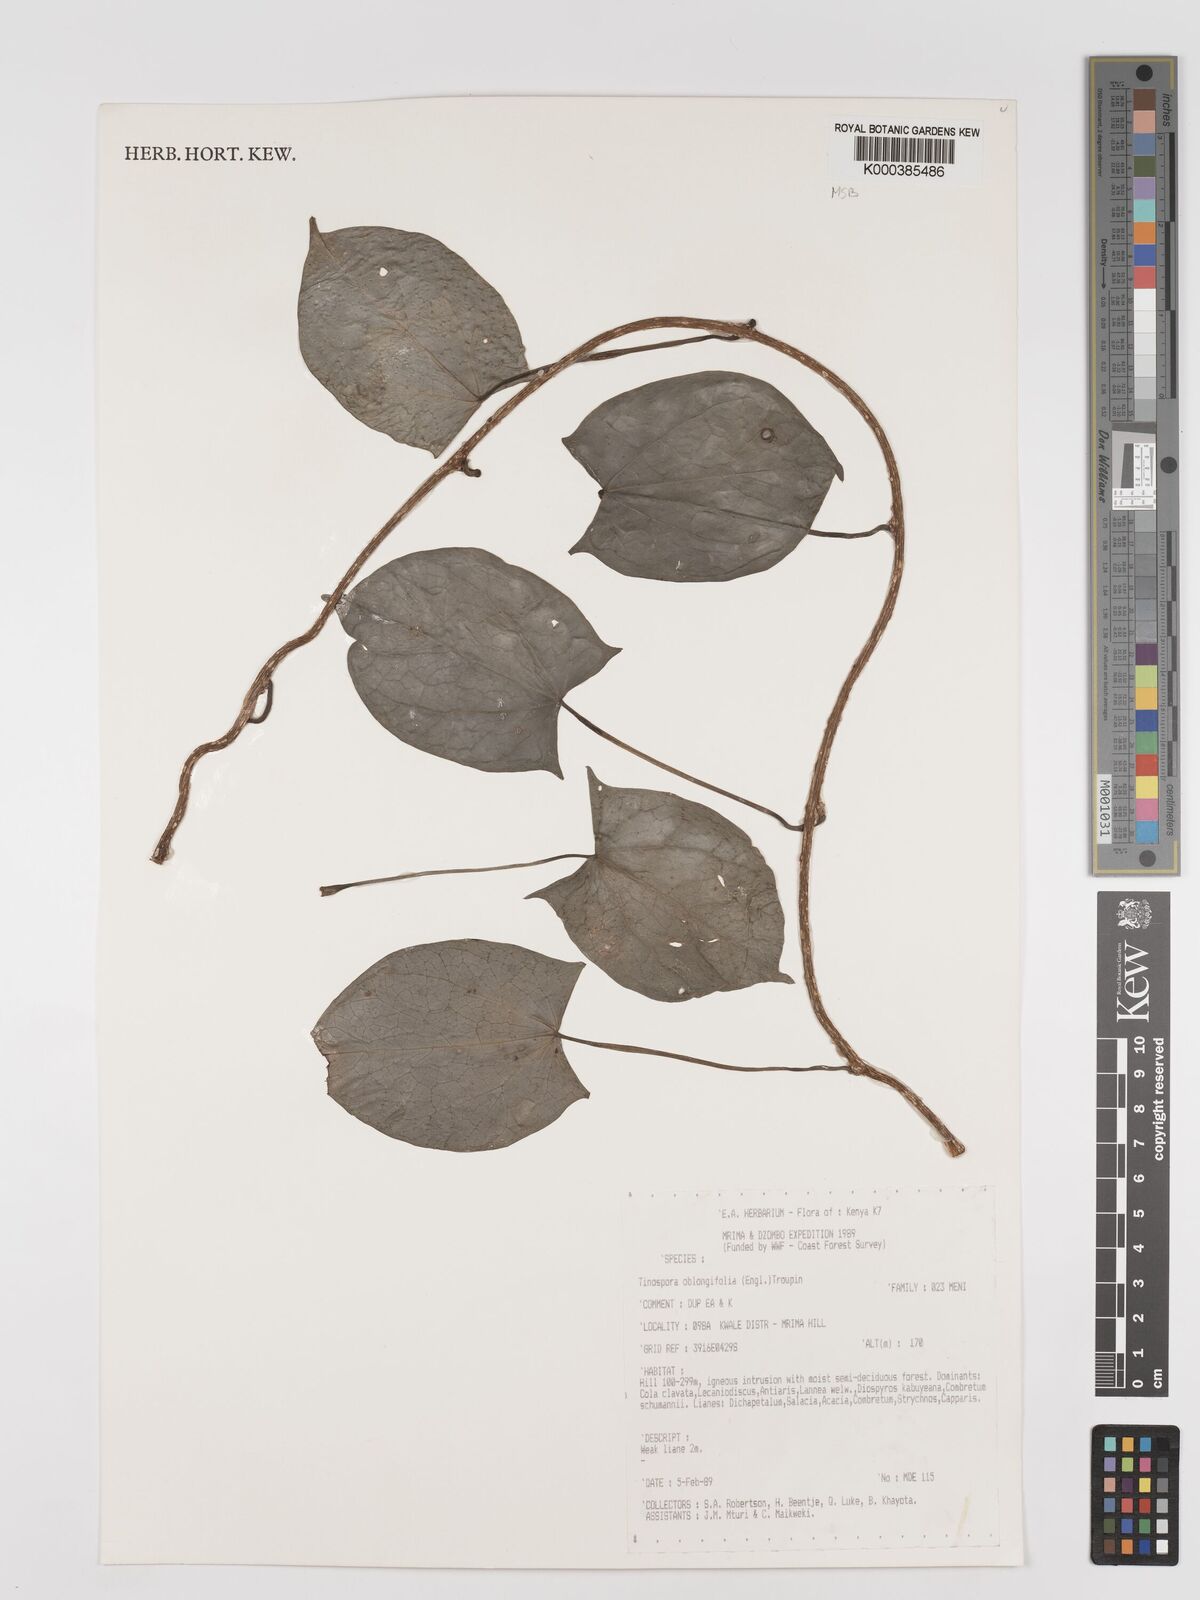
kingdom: Plantae
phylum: Tracheophyta
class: Magnoliopsida
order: Ranunculales
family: Menispermaceae
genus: Tinospora
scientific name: Tinospora oblongifolia
